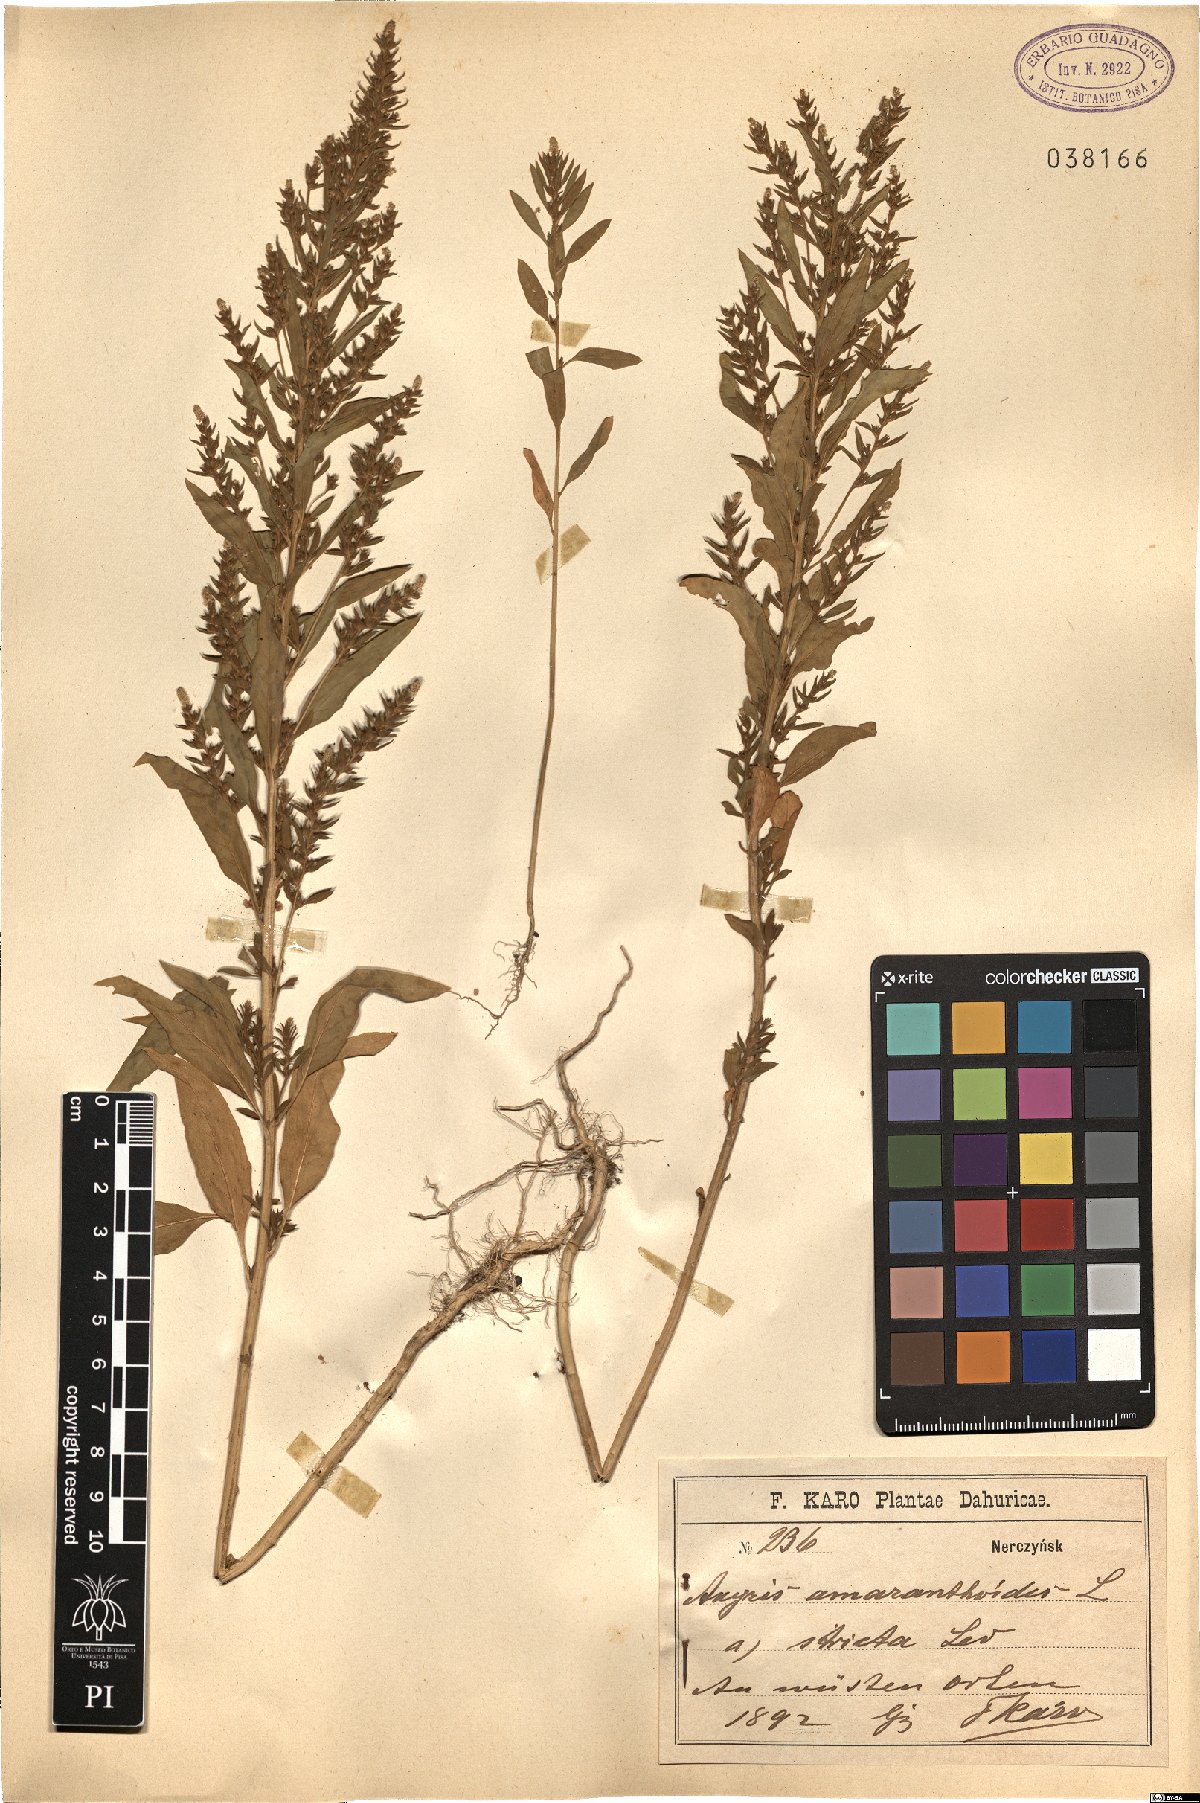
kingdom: Plantae
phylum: Tracheophyta
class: Magnoliopsida
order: Caryophyllales
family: Amaranthaceae
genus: Axyris
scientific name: Axyris amaranthoides
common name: Russian pigweed
